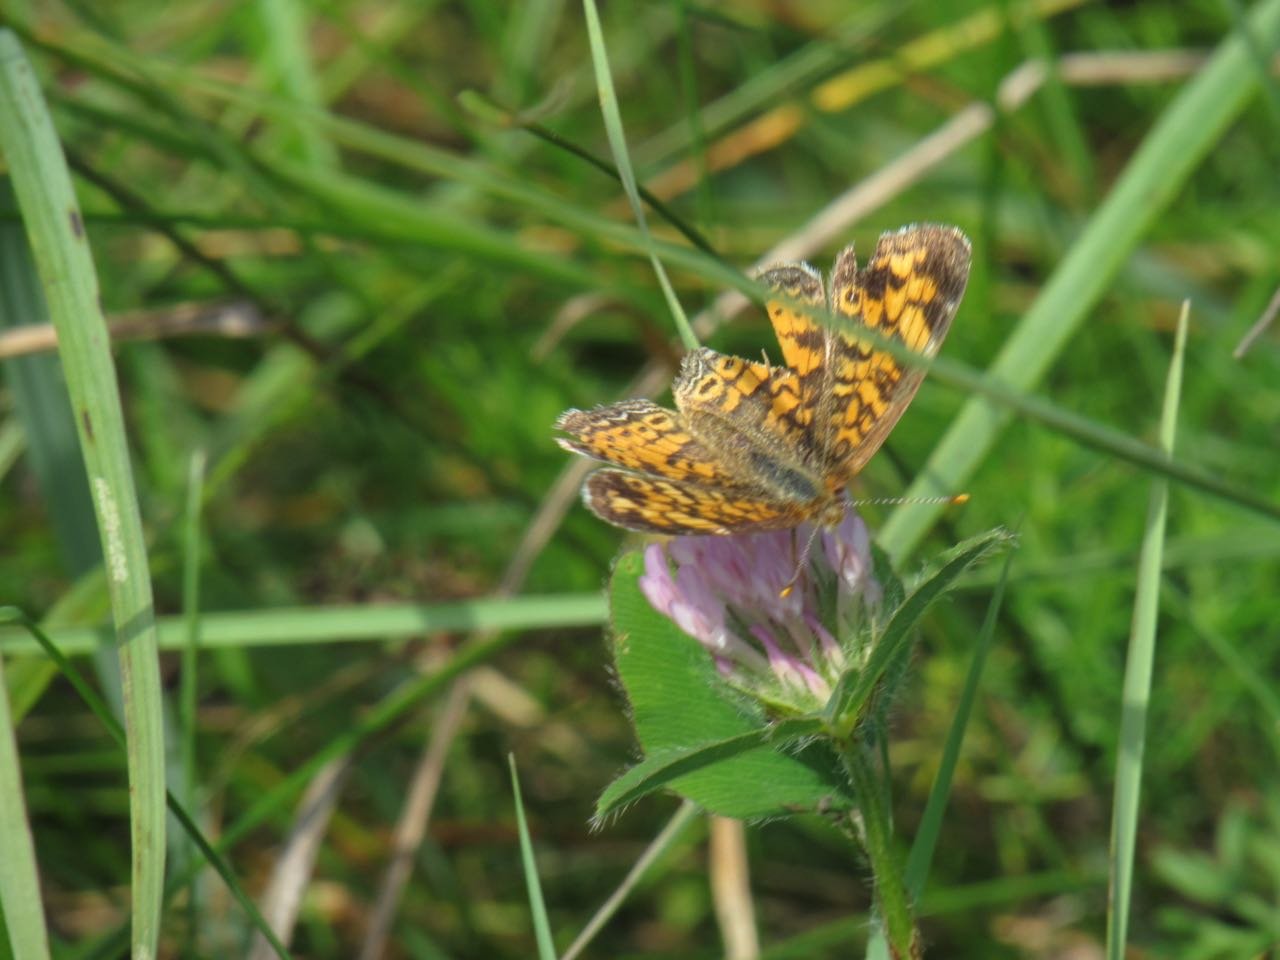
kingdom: Animalia
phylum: Arthropoda
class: Insecta
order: Lepidoptera
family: Nymphalidae
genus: Phyciodes
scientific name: Phyciodes tharos
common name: Pearl Crescent
